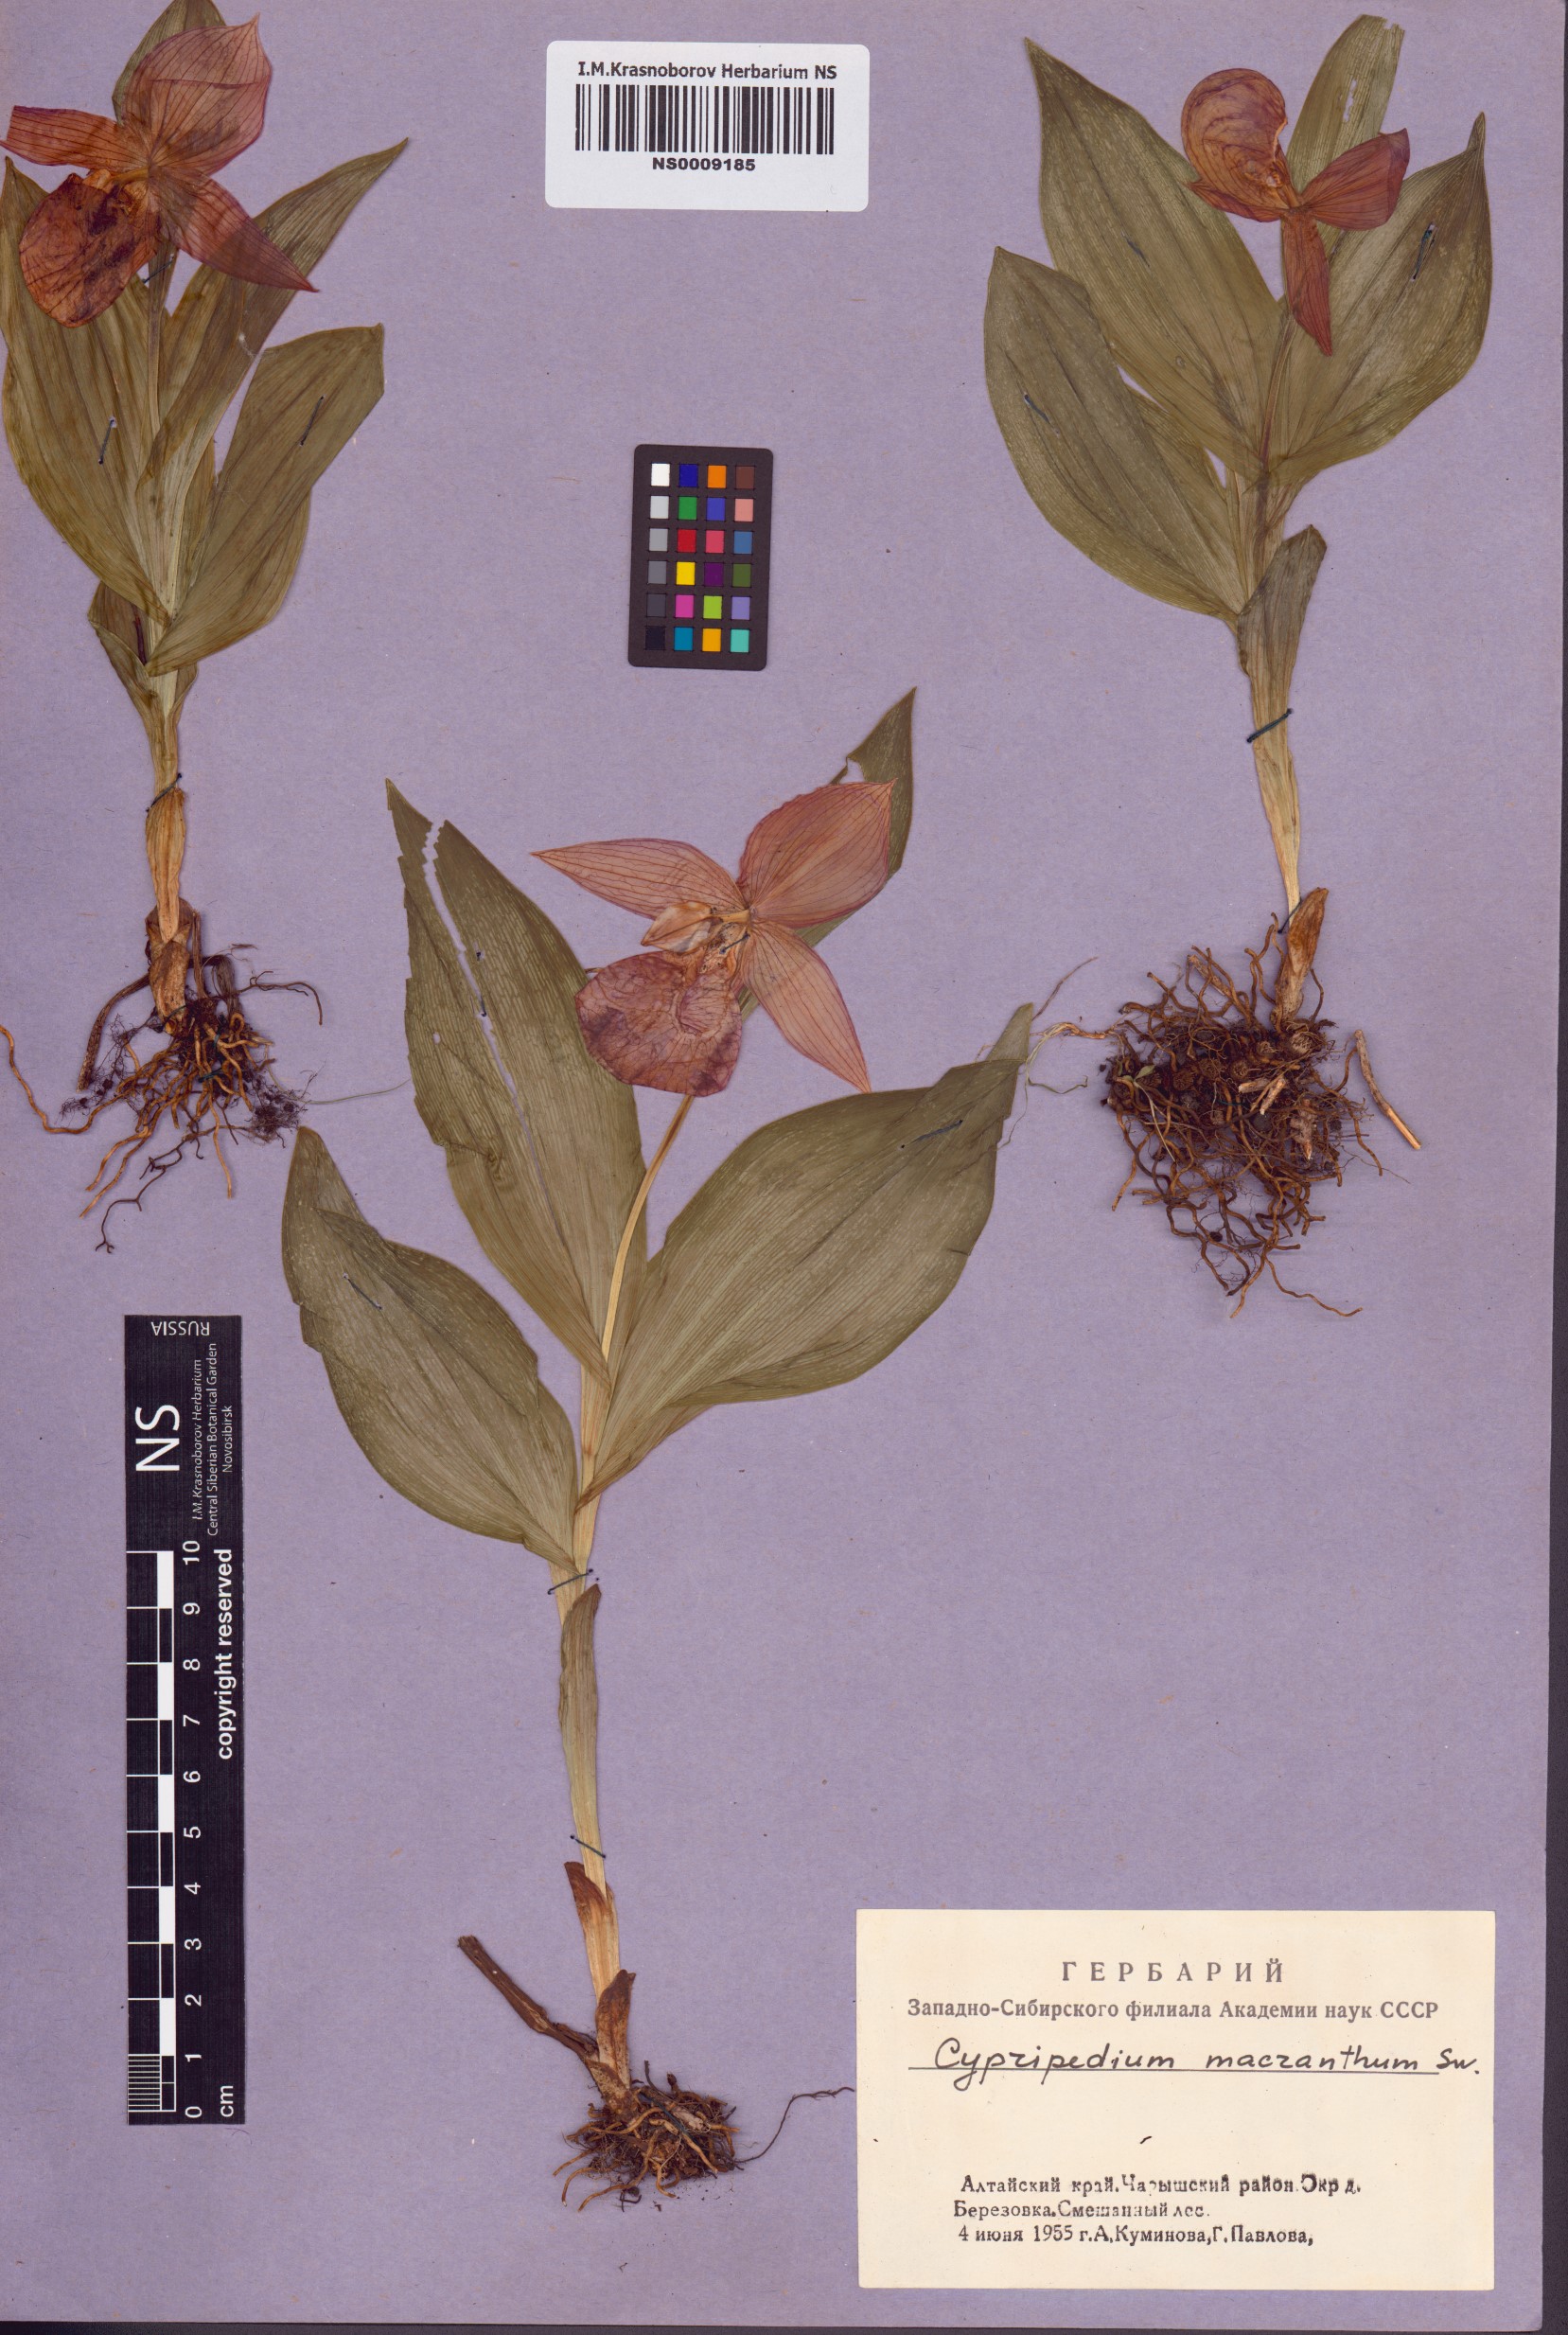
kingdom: Plantae
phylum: Tracheophyta
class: Liliopsida
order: Asparagales
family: Orchidaceae
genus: Cypripedium
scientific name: Cypripedium macranthos
